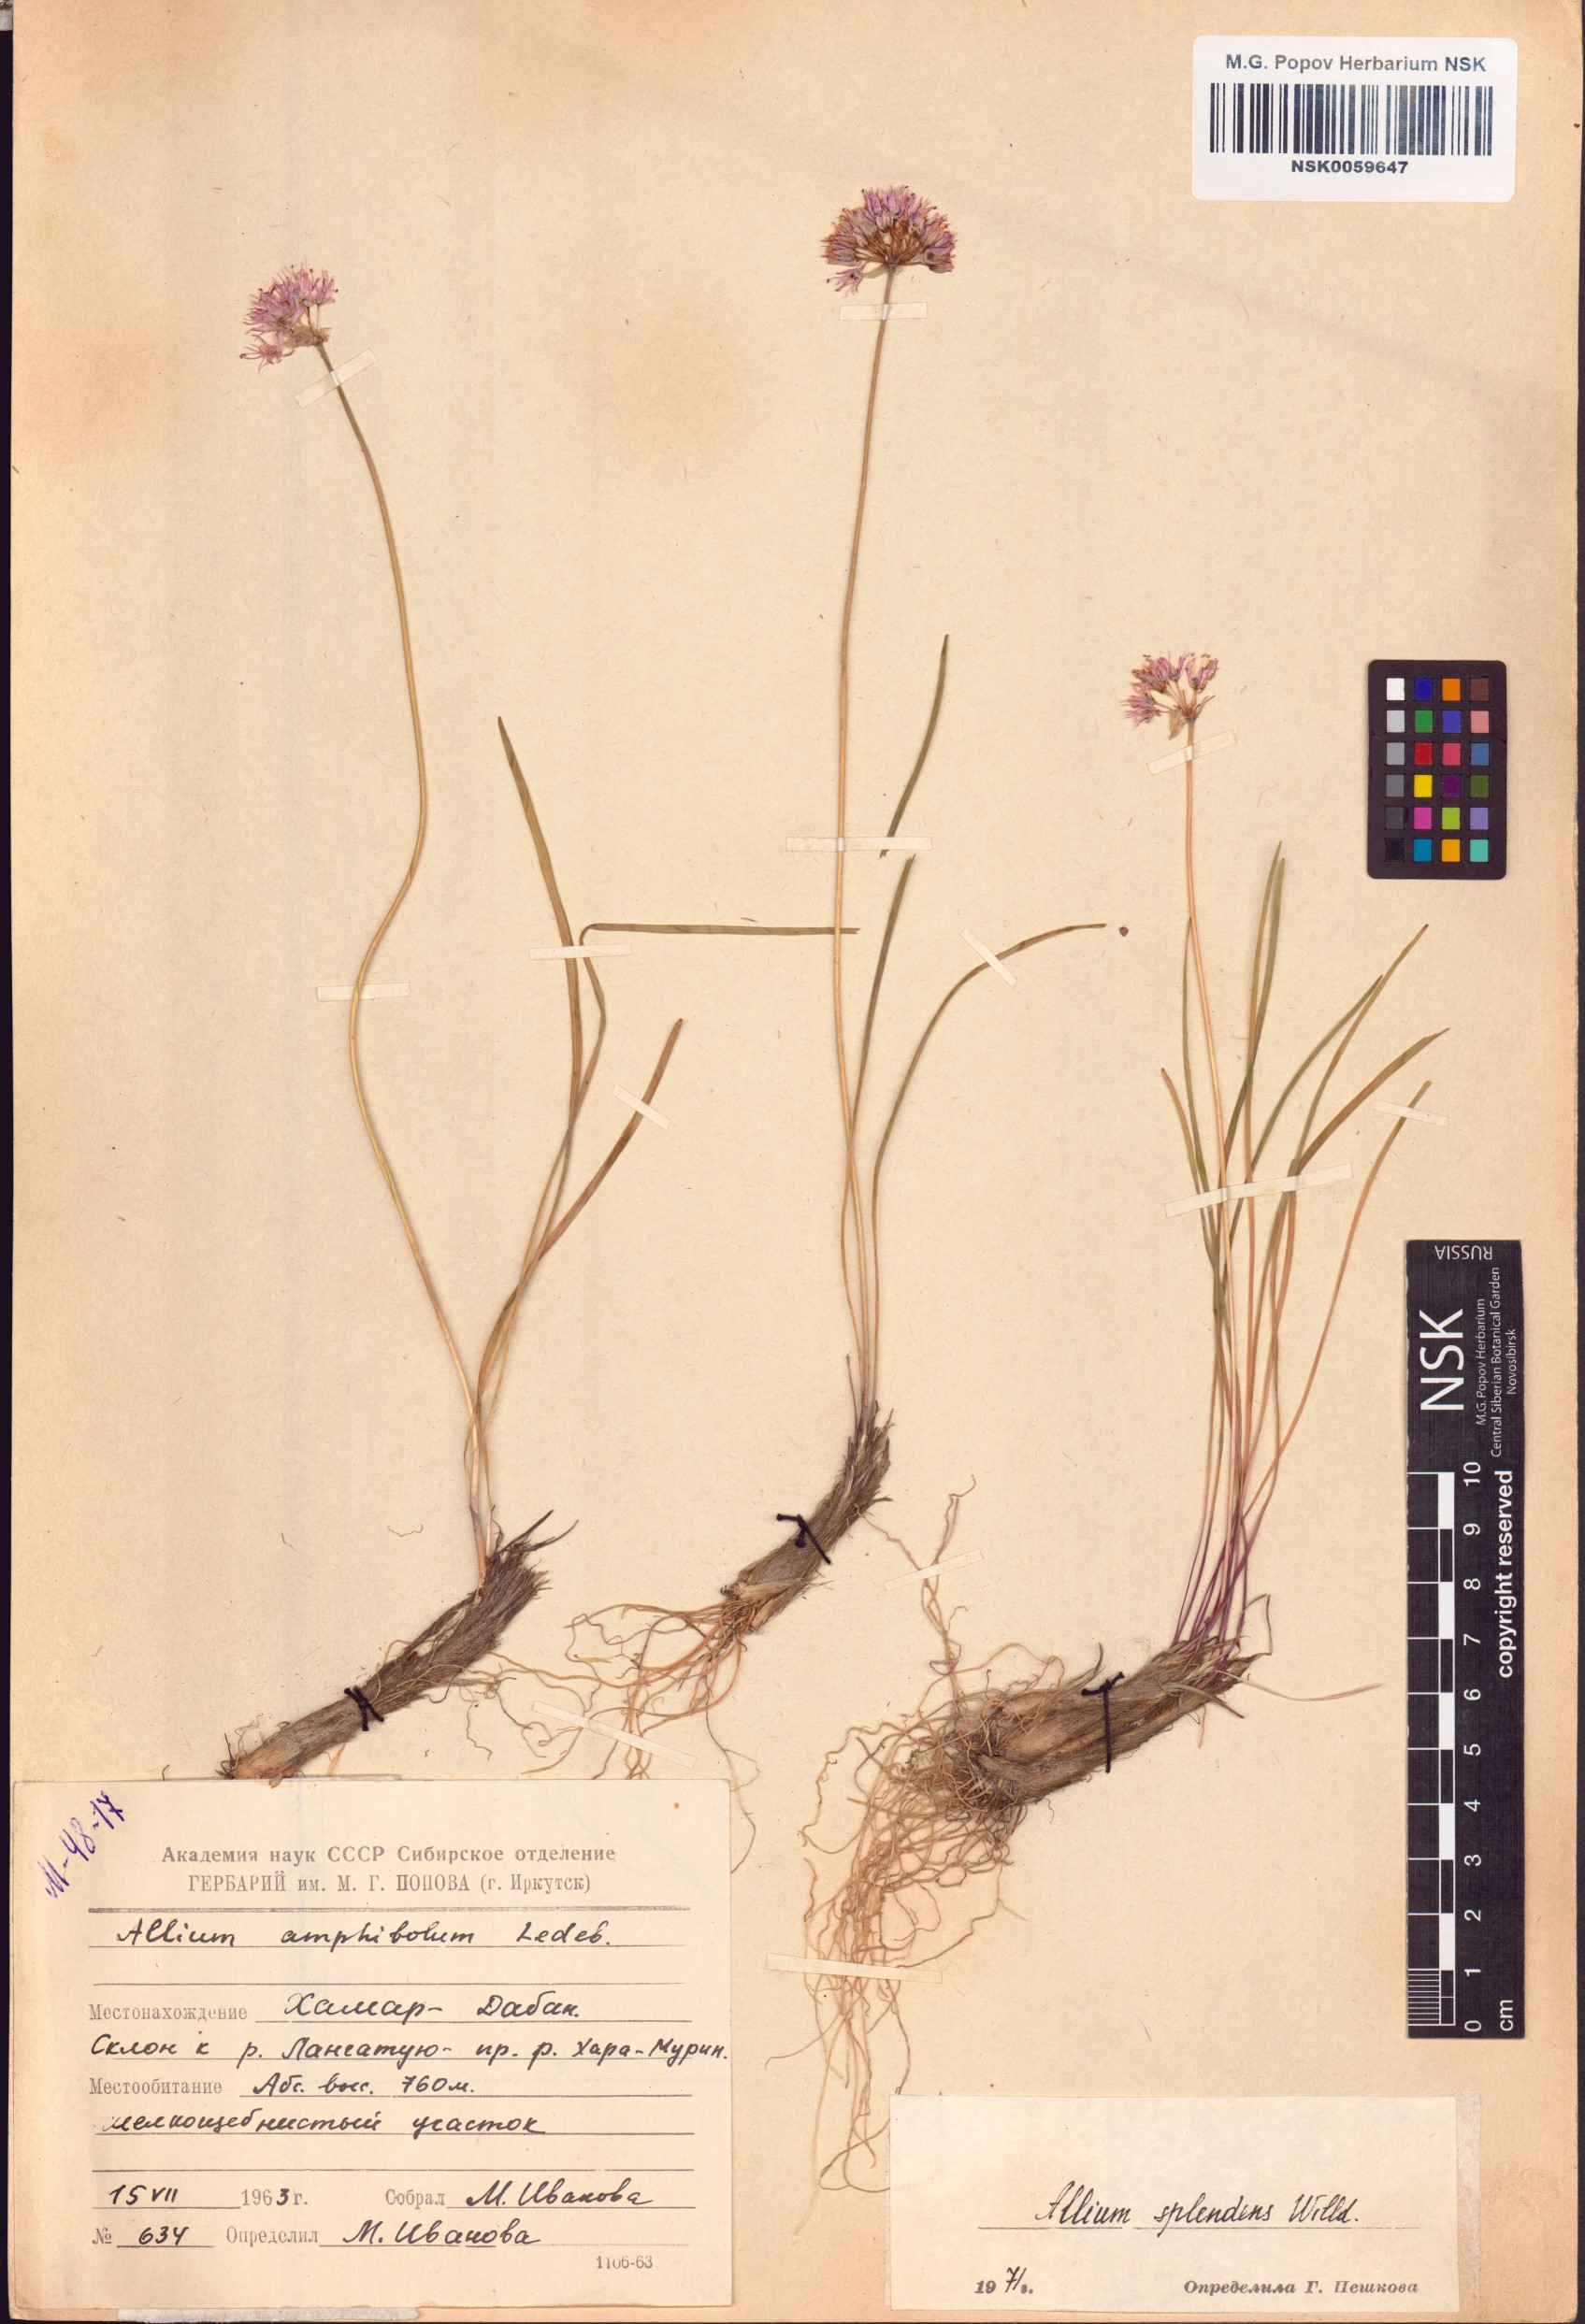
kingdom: Plantae
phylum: Tracheophyta
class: Liliopsida
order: Asparagales
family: Amaryllidaceae
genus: Allium
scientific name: Allium splendens
